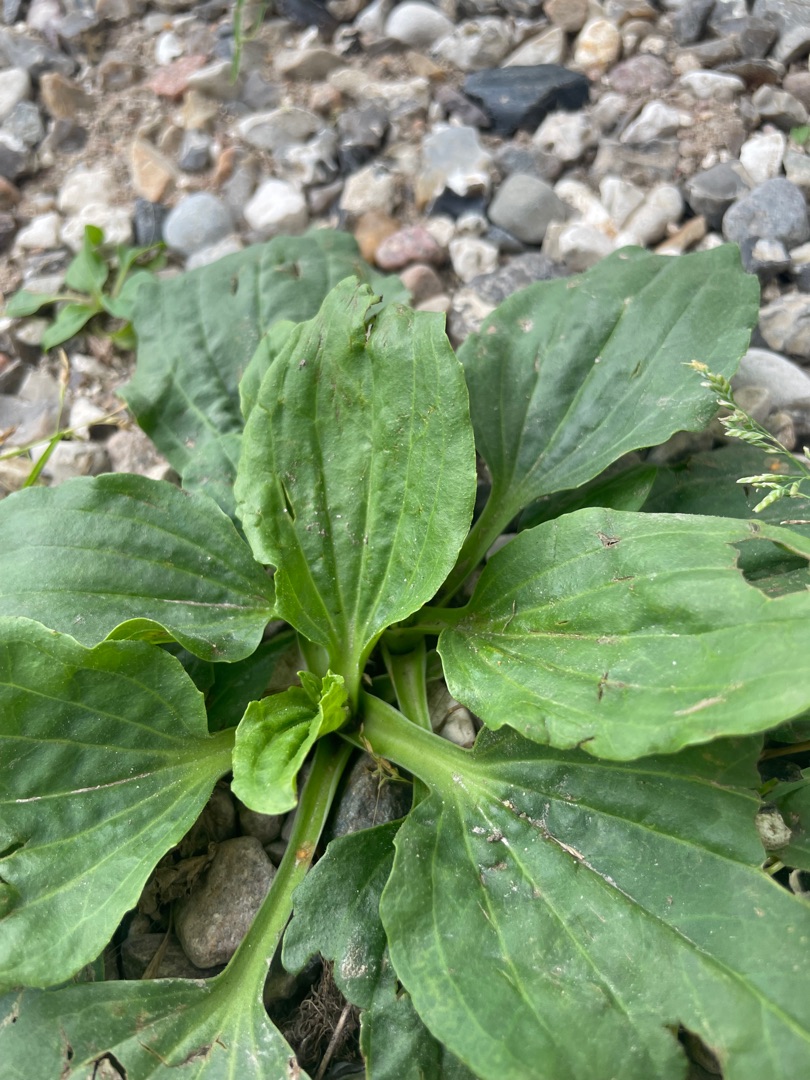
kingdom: Plantae
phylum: Tracheophyta
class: Magnoliopsida
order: Lamiales
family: Plantaginaceae
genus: Plantago
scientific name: Plantago major
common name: Glat vejbred
